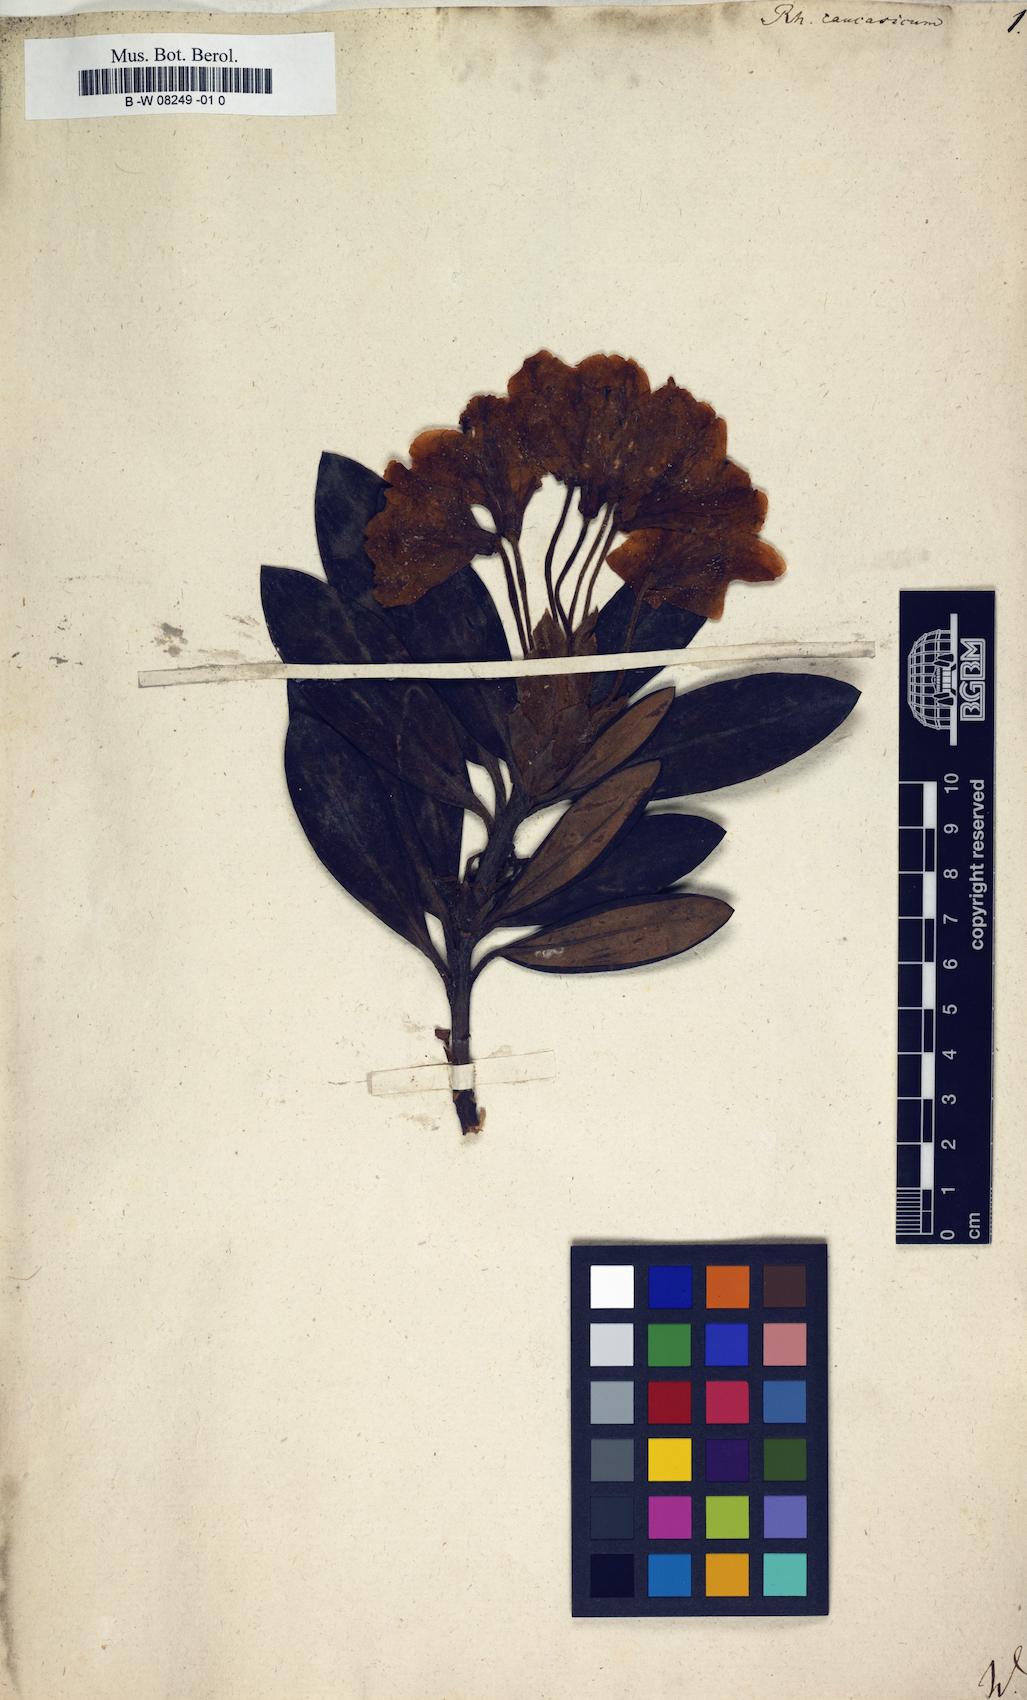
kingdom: Plantae
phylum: Tracheophyta
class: Magnoliopsida
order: Ericales
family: Ericaceae
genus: Rhododendron
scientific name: Rhododendron caucasicum
